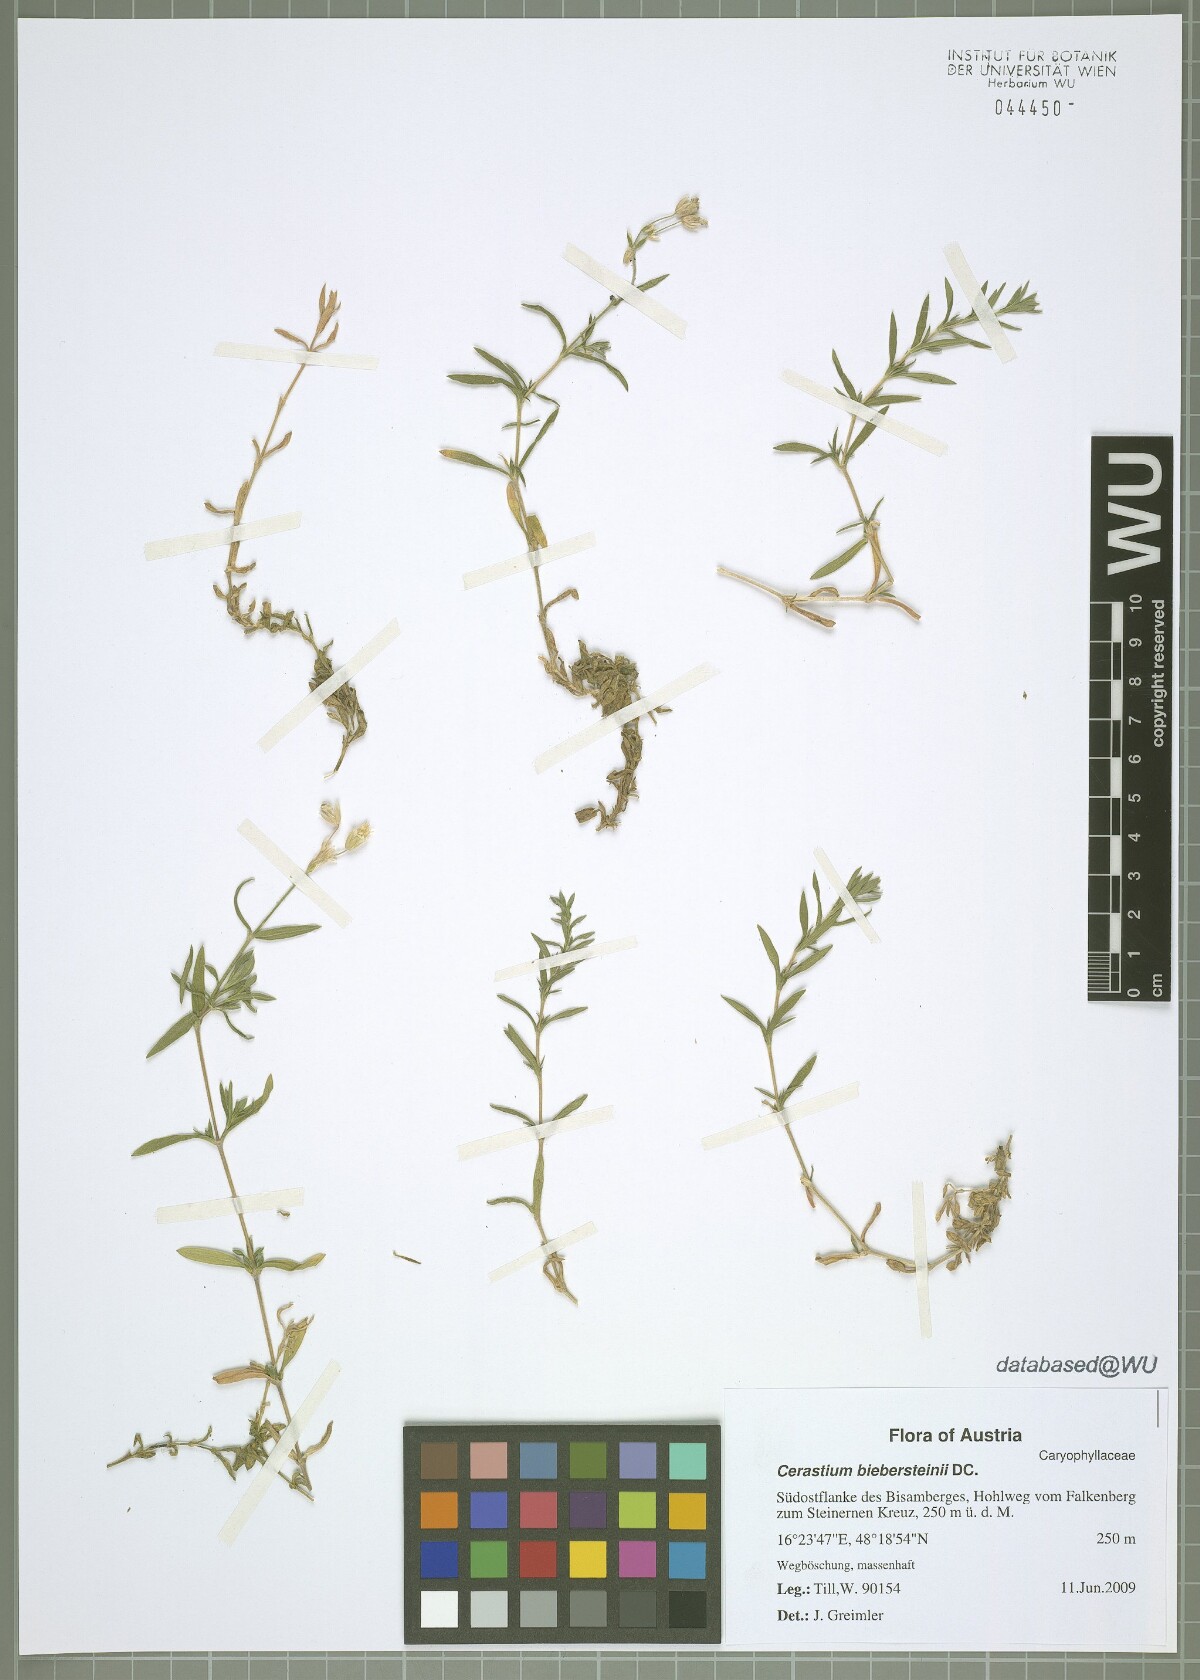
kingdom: Plantae
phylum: Tracheophyta
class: Magnoliopsida
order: Caryophyllales
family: Caryophyllaceae
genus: Cerastium
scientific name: Cerastium biebersteinii
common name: Snow-in-summer
